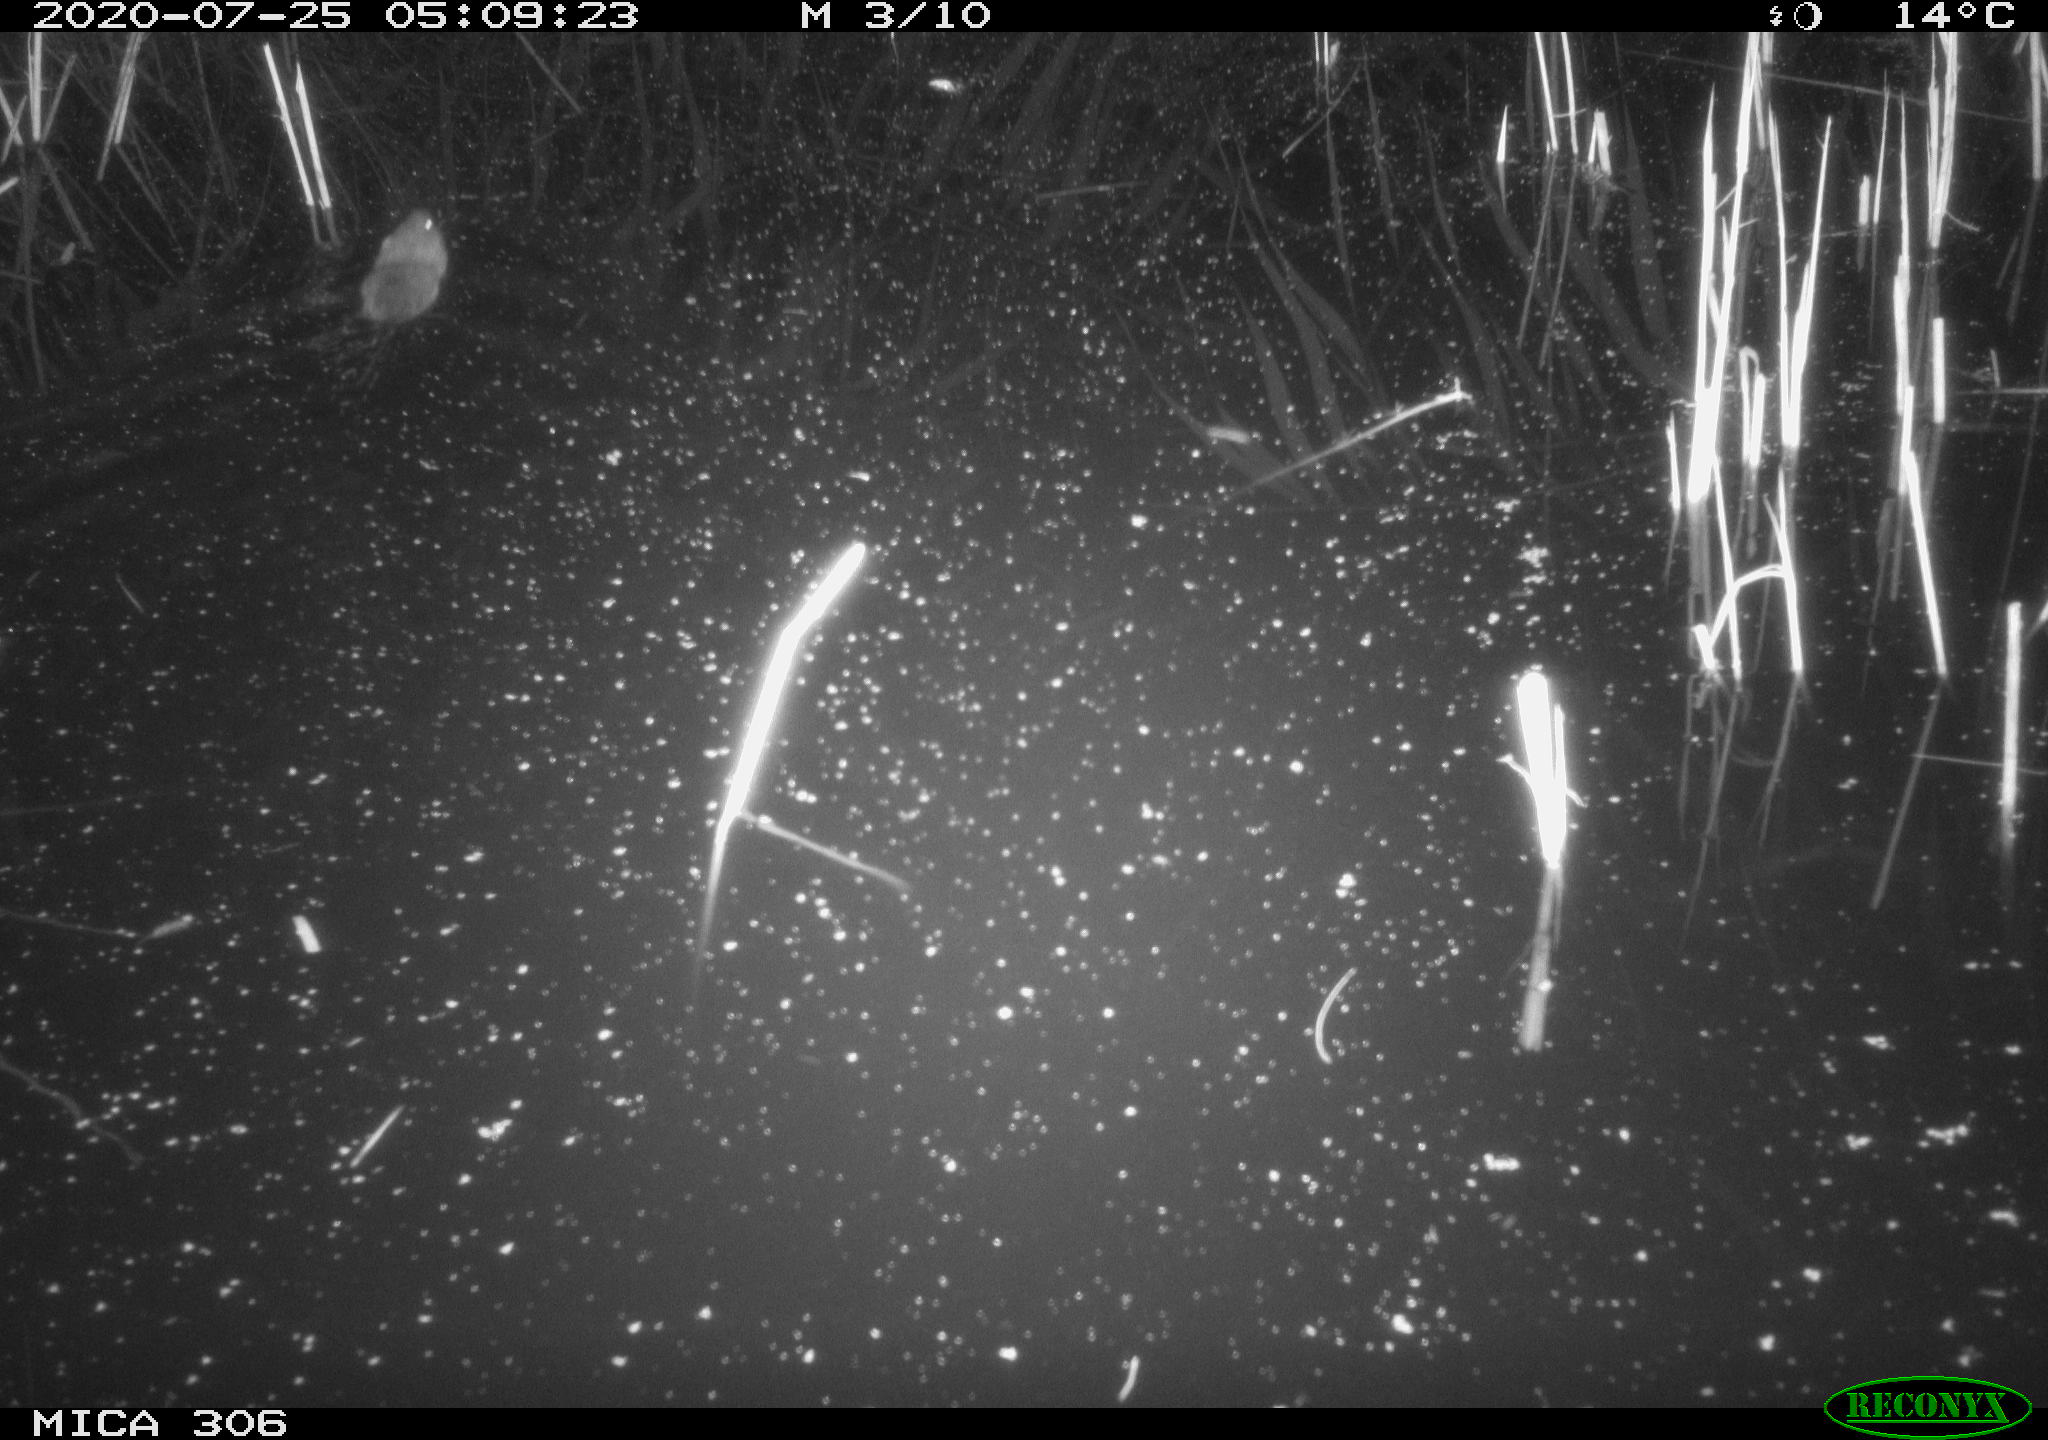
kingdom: Animalia
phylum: Chordata
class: Mammalia
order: Rodentia
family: Cricetidae
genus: Ondatra
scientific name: Ondatra zibethicus
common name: Muskrat
